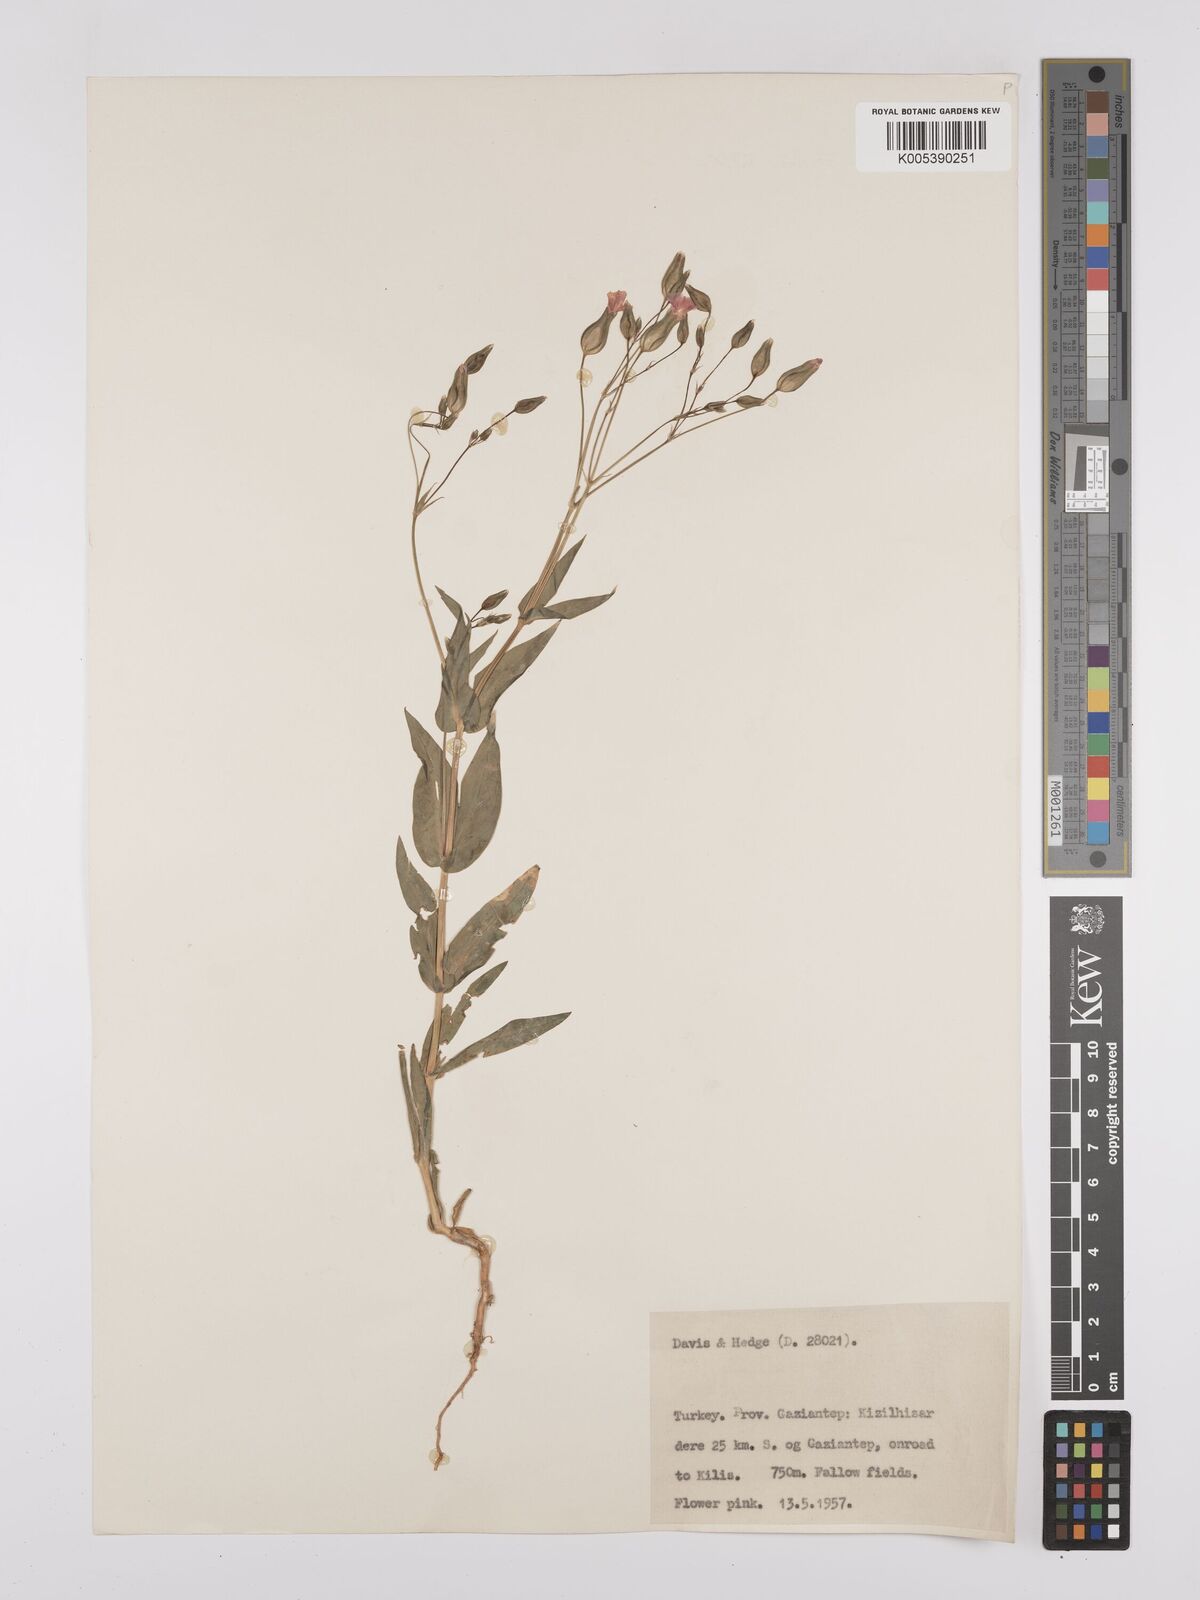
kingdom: Plantae
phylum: Tracheophyta
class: Magnoliopsida
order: Caryophyllales
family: Caryophyllaceae
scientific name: Caryophyllaceae
